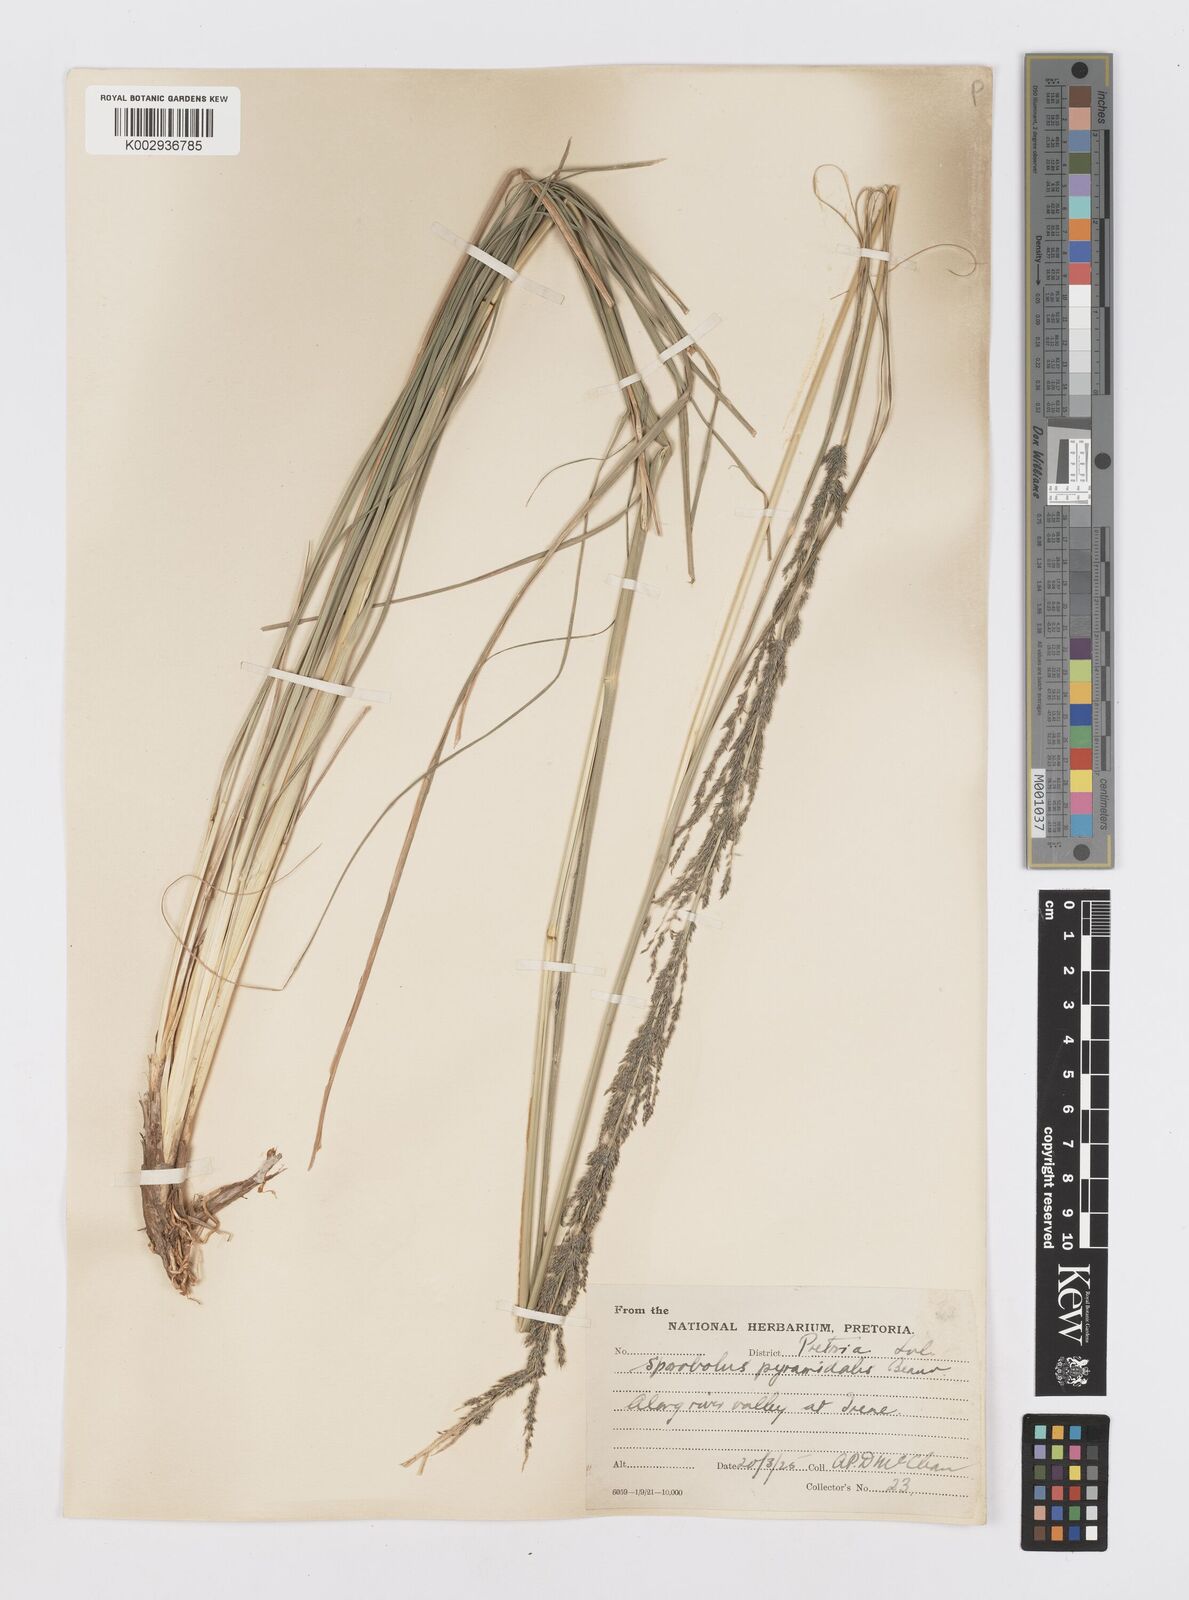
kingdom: Plantae
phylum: Tracheophyta
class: Liliopsida
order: Poales
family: Poaceae
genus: Sporobolus
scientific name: Sporobolus pyramidalis
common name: West indian dropseed
